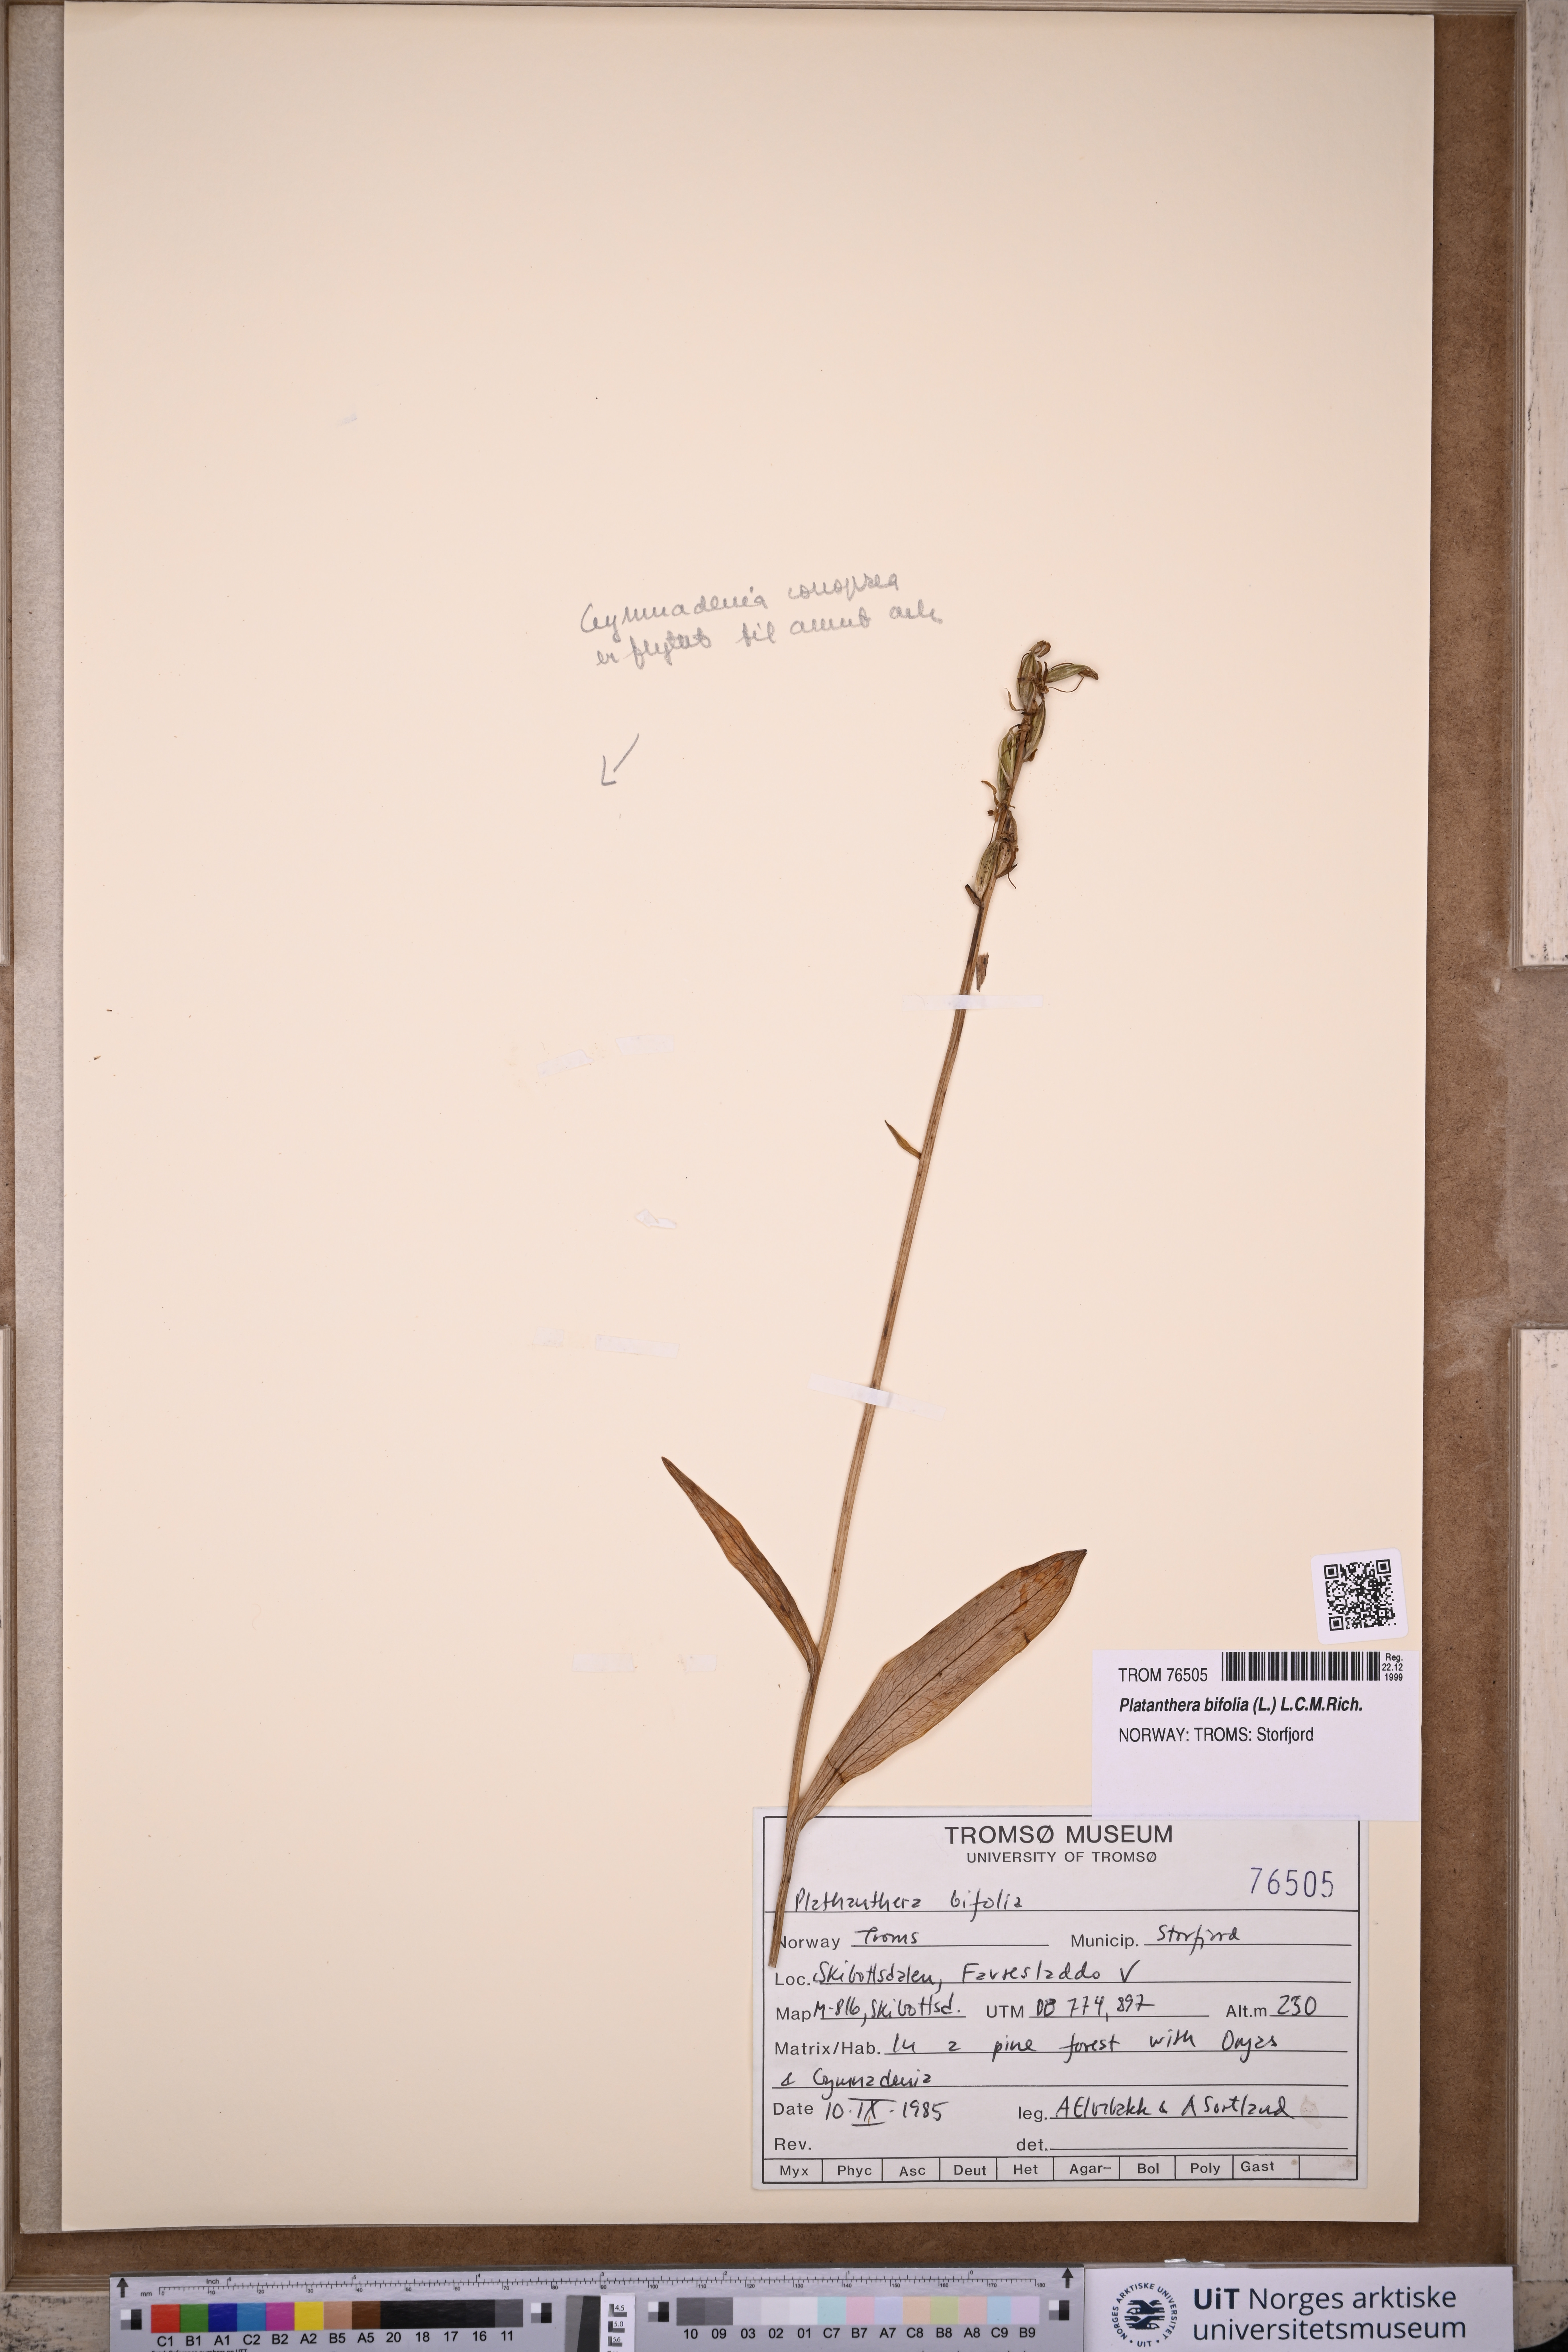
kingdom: Plantae
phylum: Tracheophyta
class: Liliopsida
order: Asparagales
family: Orchidaceae
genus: Platanthera
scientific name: Platanthera bifolia
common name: Lesser butterfly-orchid
